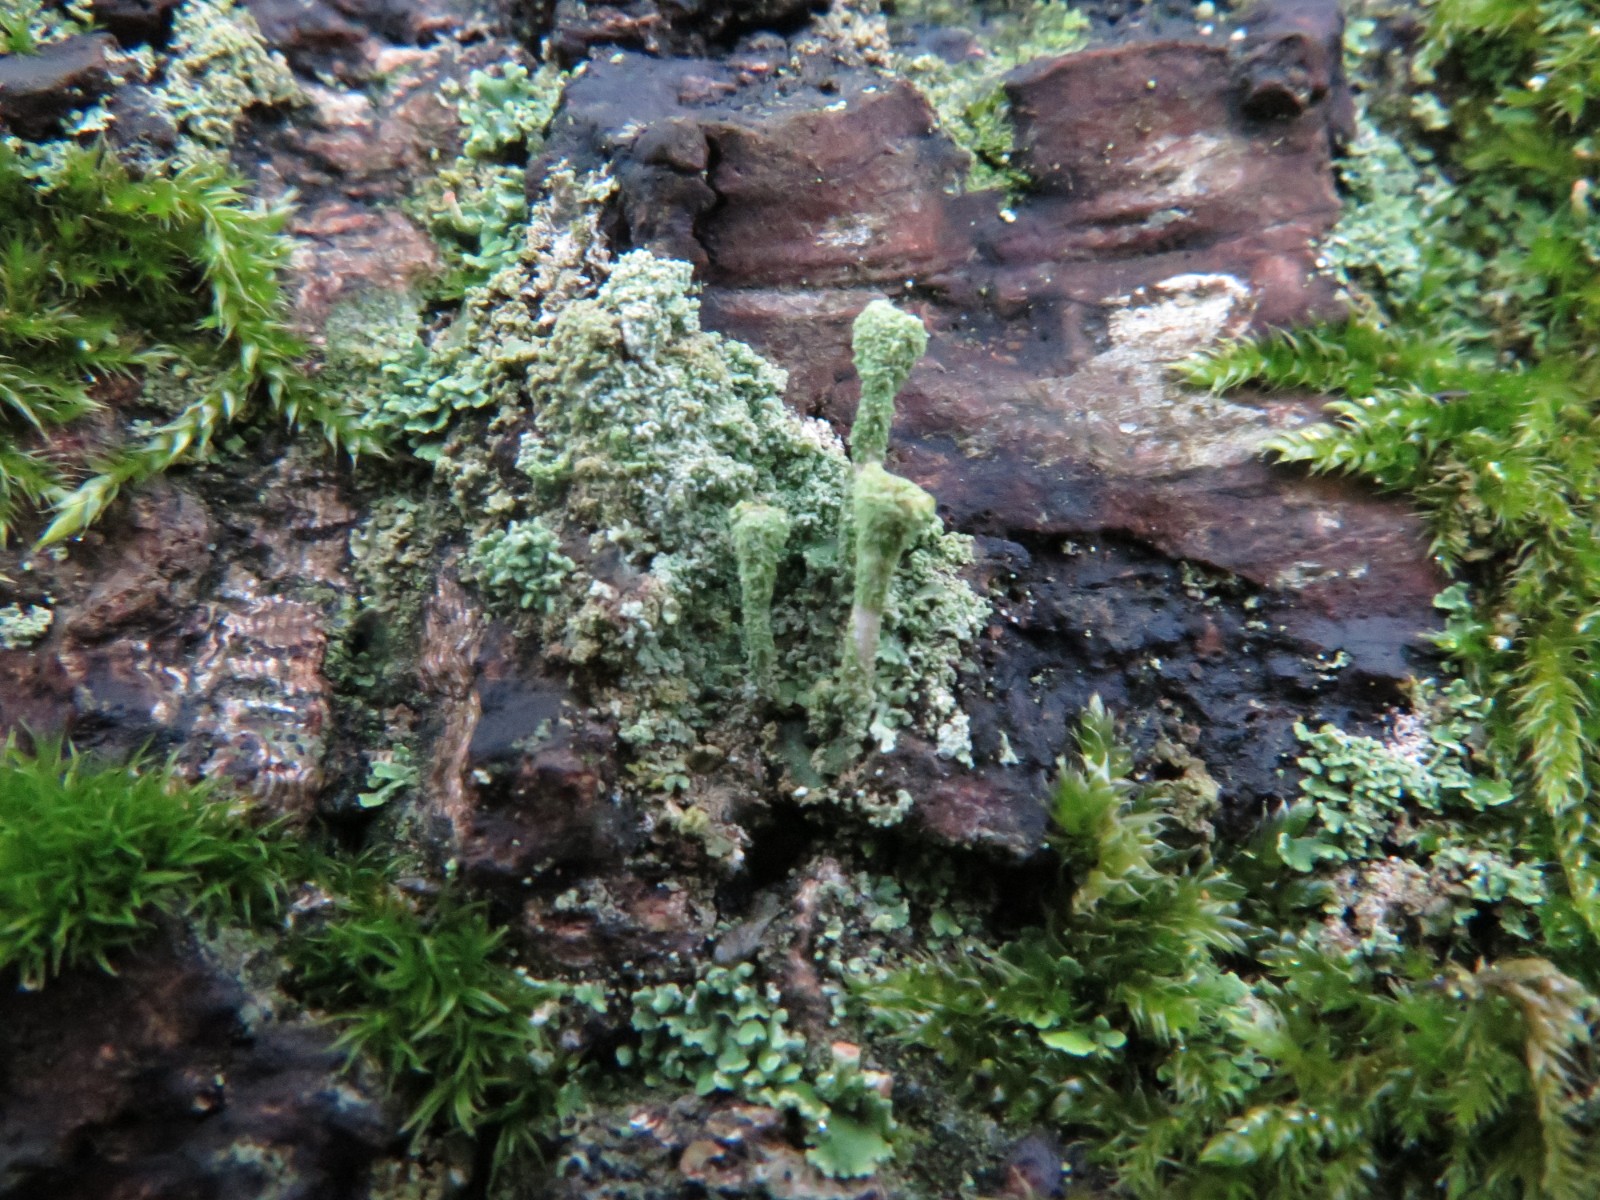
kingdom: Fungi
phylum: Ascomycota
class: Lecanoromycetes
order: Lecanorales
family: Cladoniaceae
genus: Cladonia
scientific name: Cladonia fimbriata
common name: bleggrøn bægerlav
